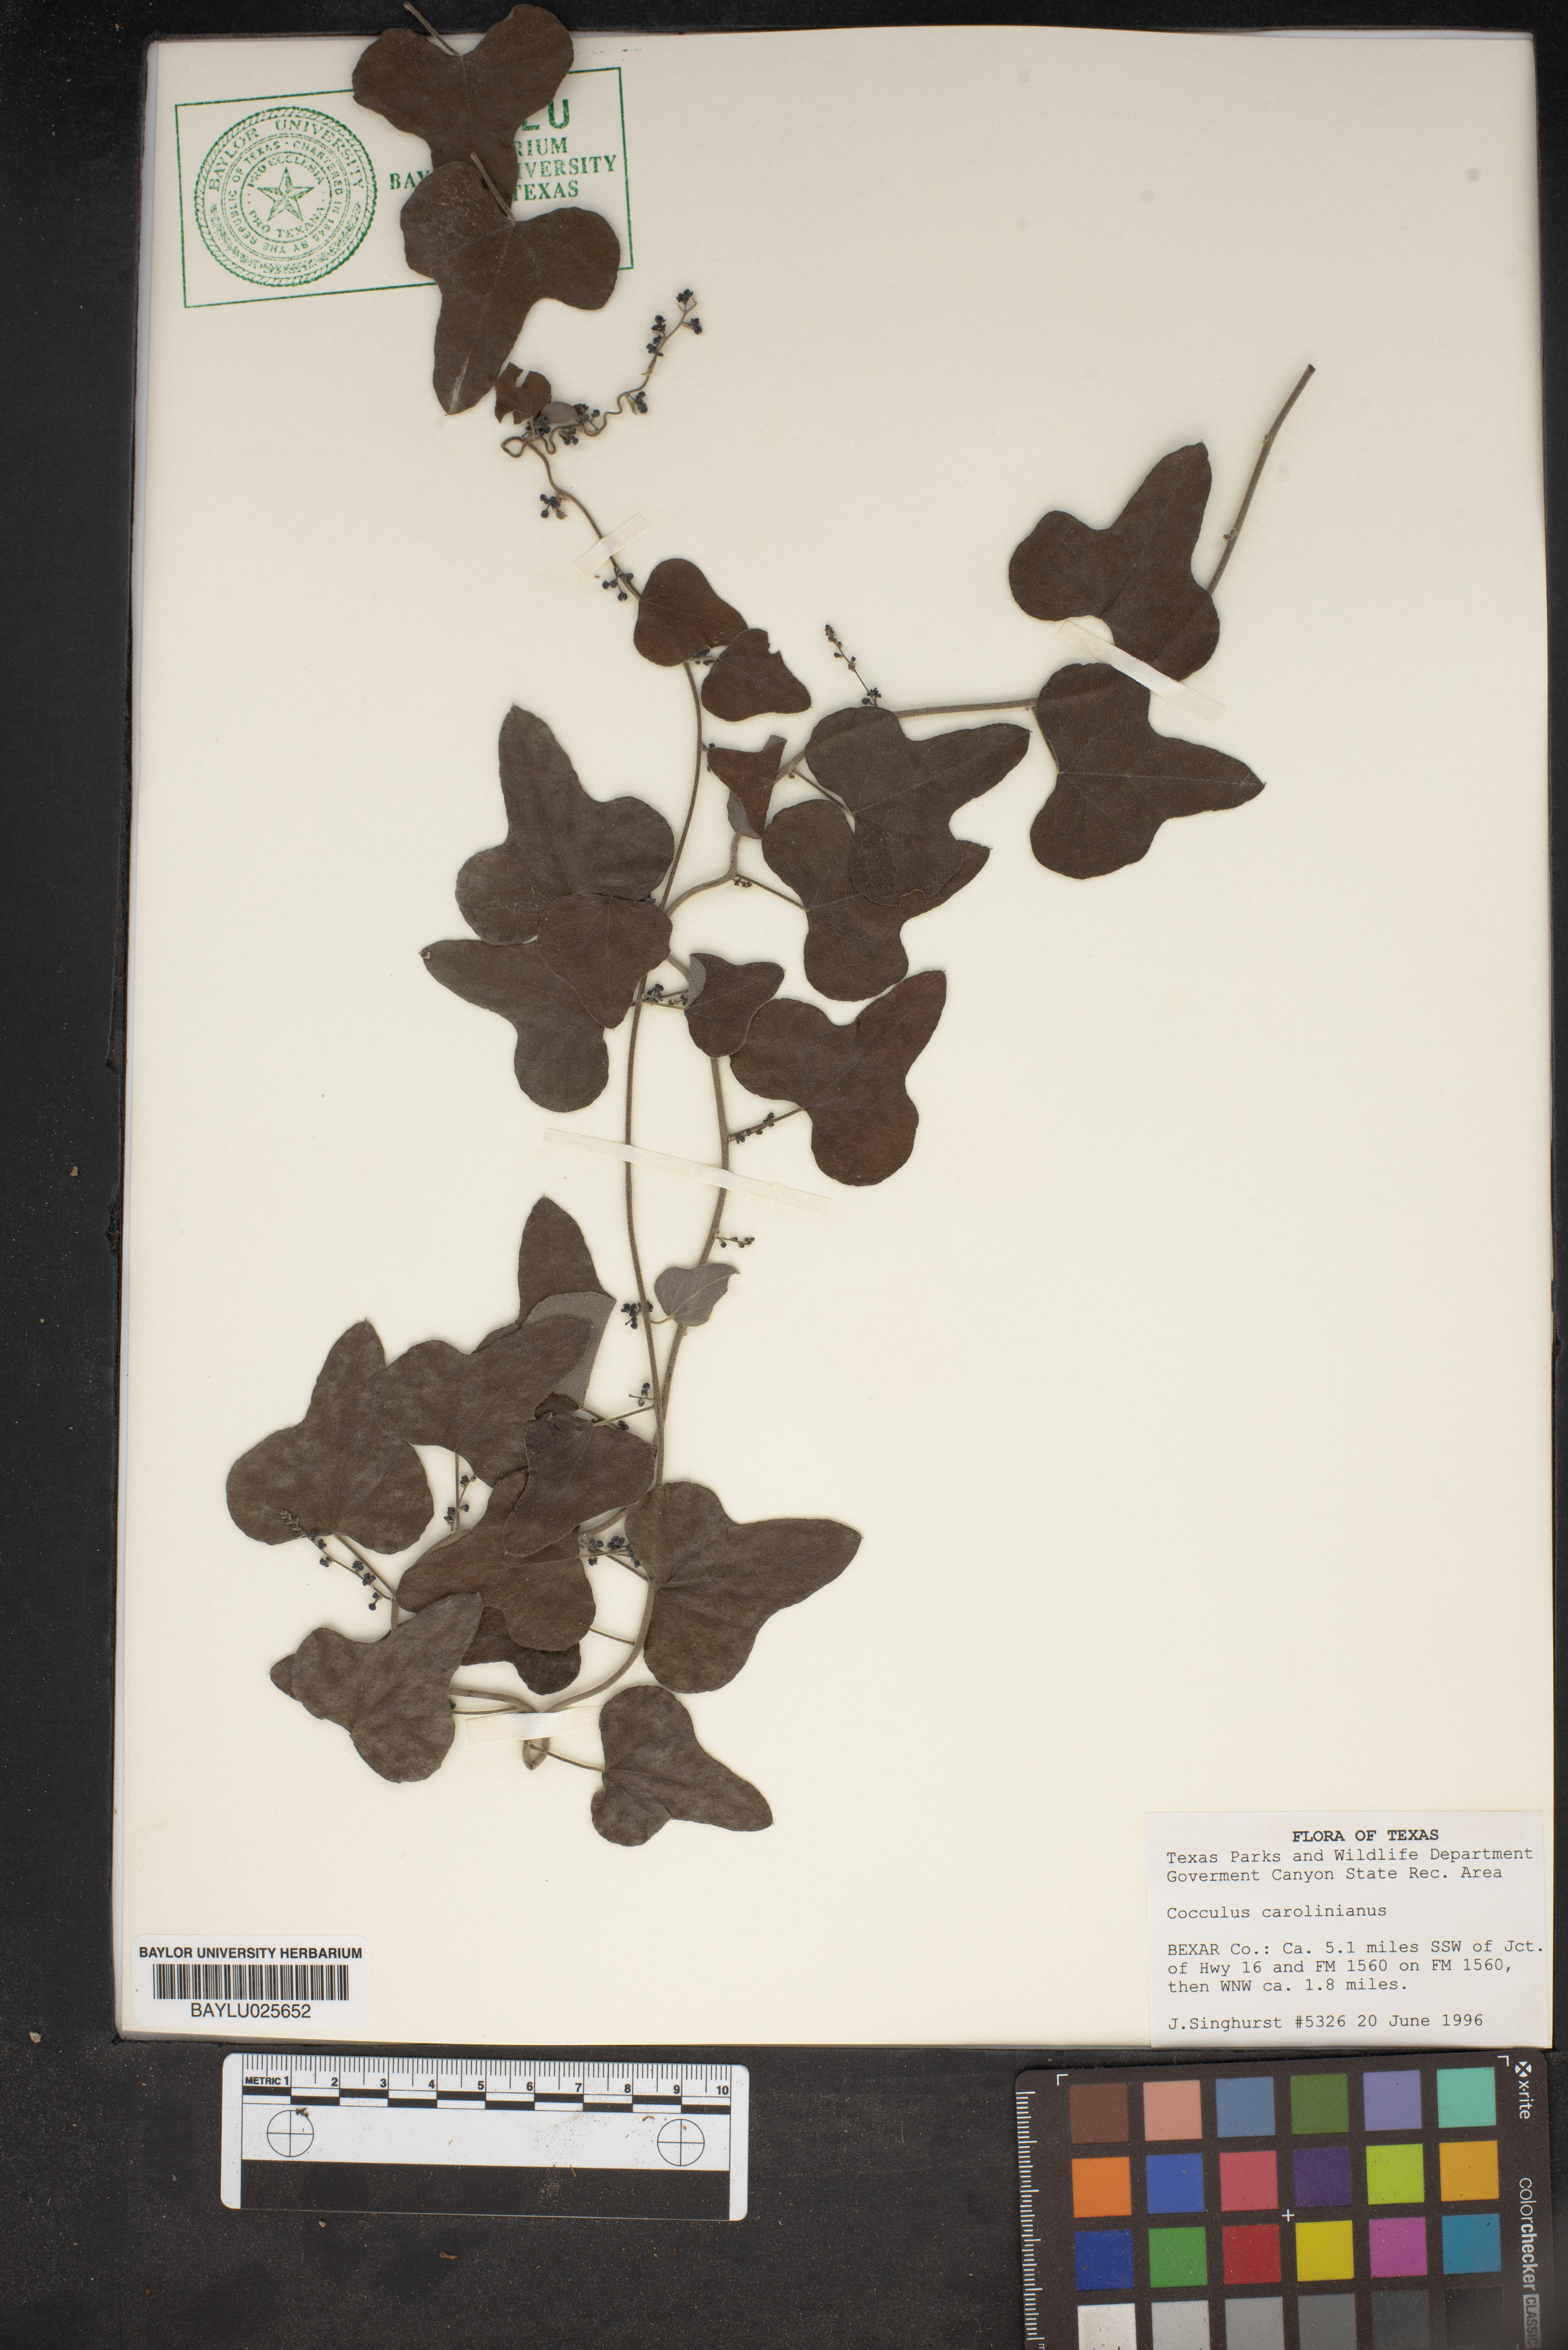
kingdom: Plantae
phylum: Tracheophyta
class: Magnoliopsida
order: Ranunculales
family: Menispermaceae
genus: Cocculus
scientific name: Cocculus carolinus
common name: Carolina moonseed
